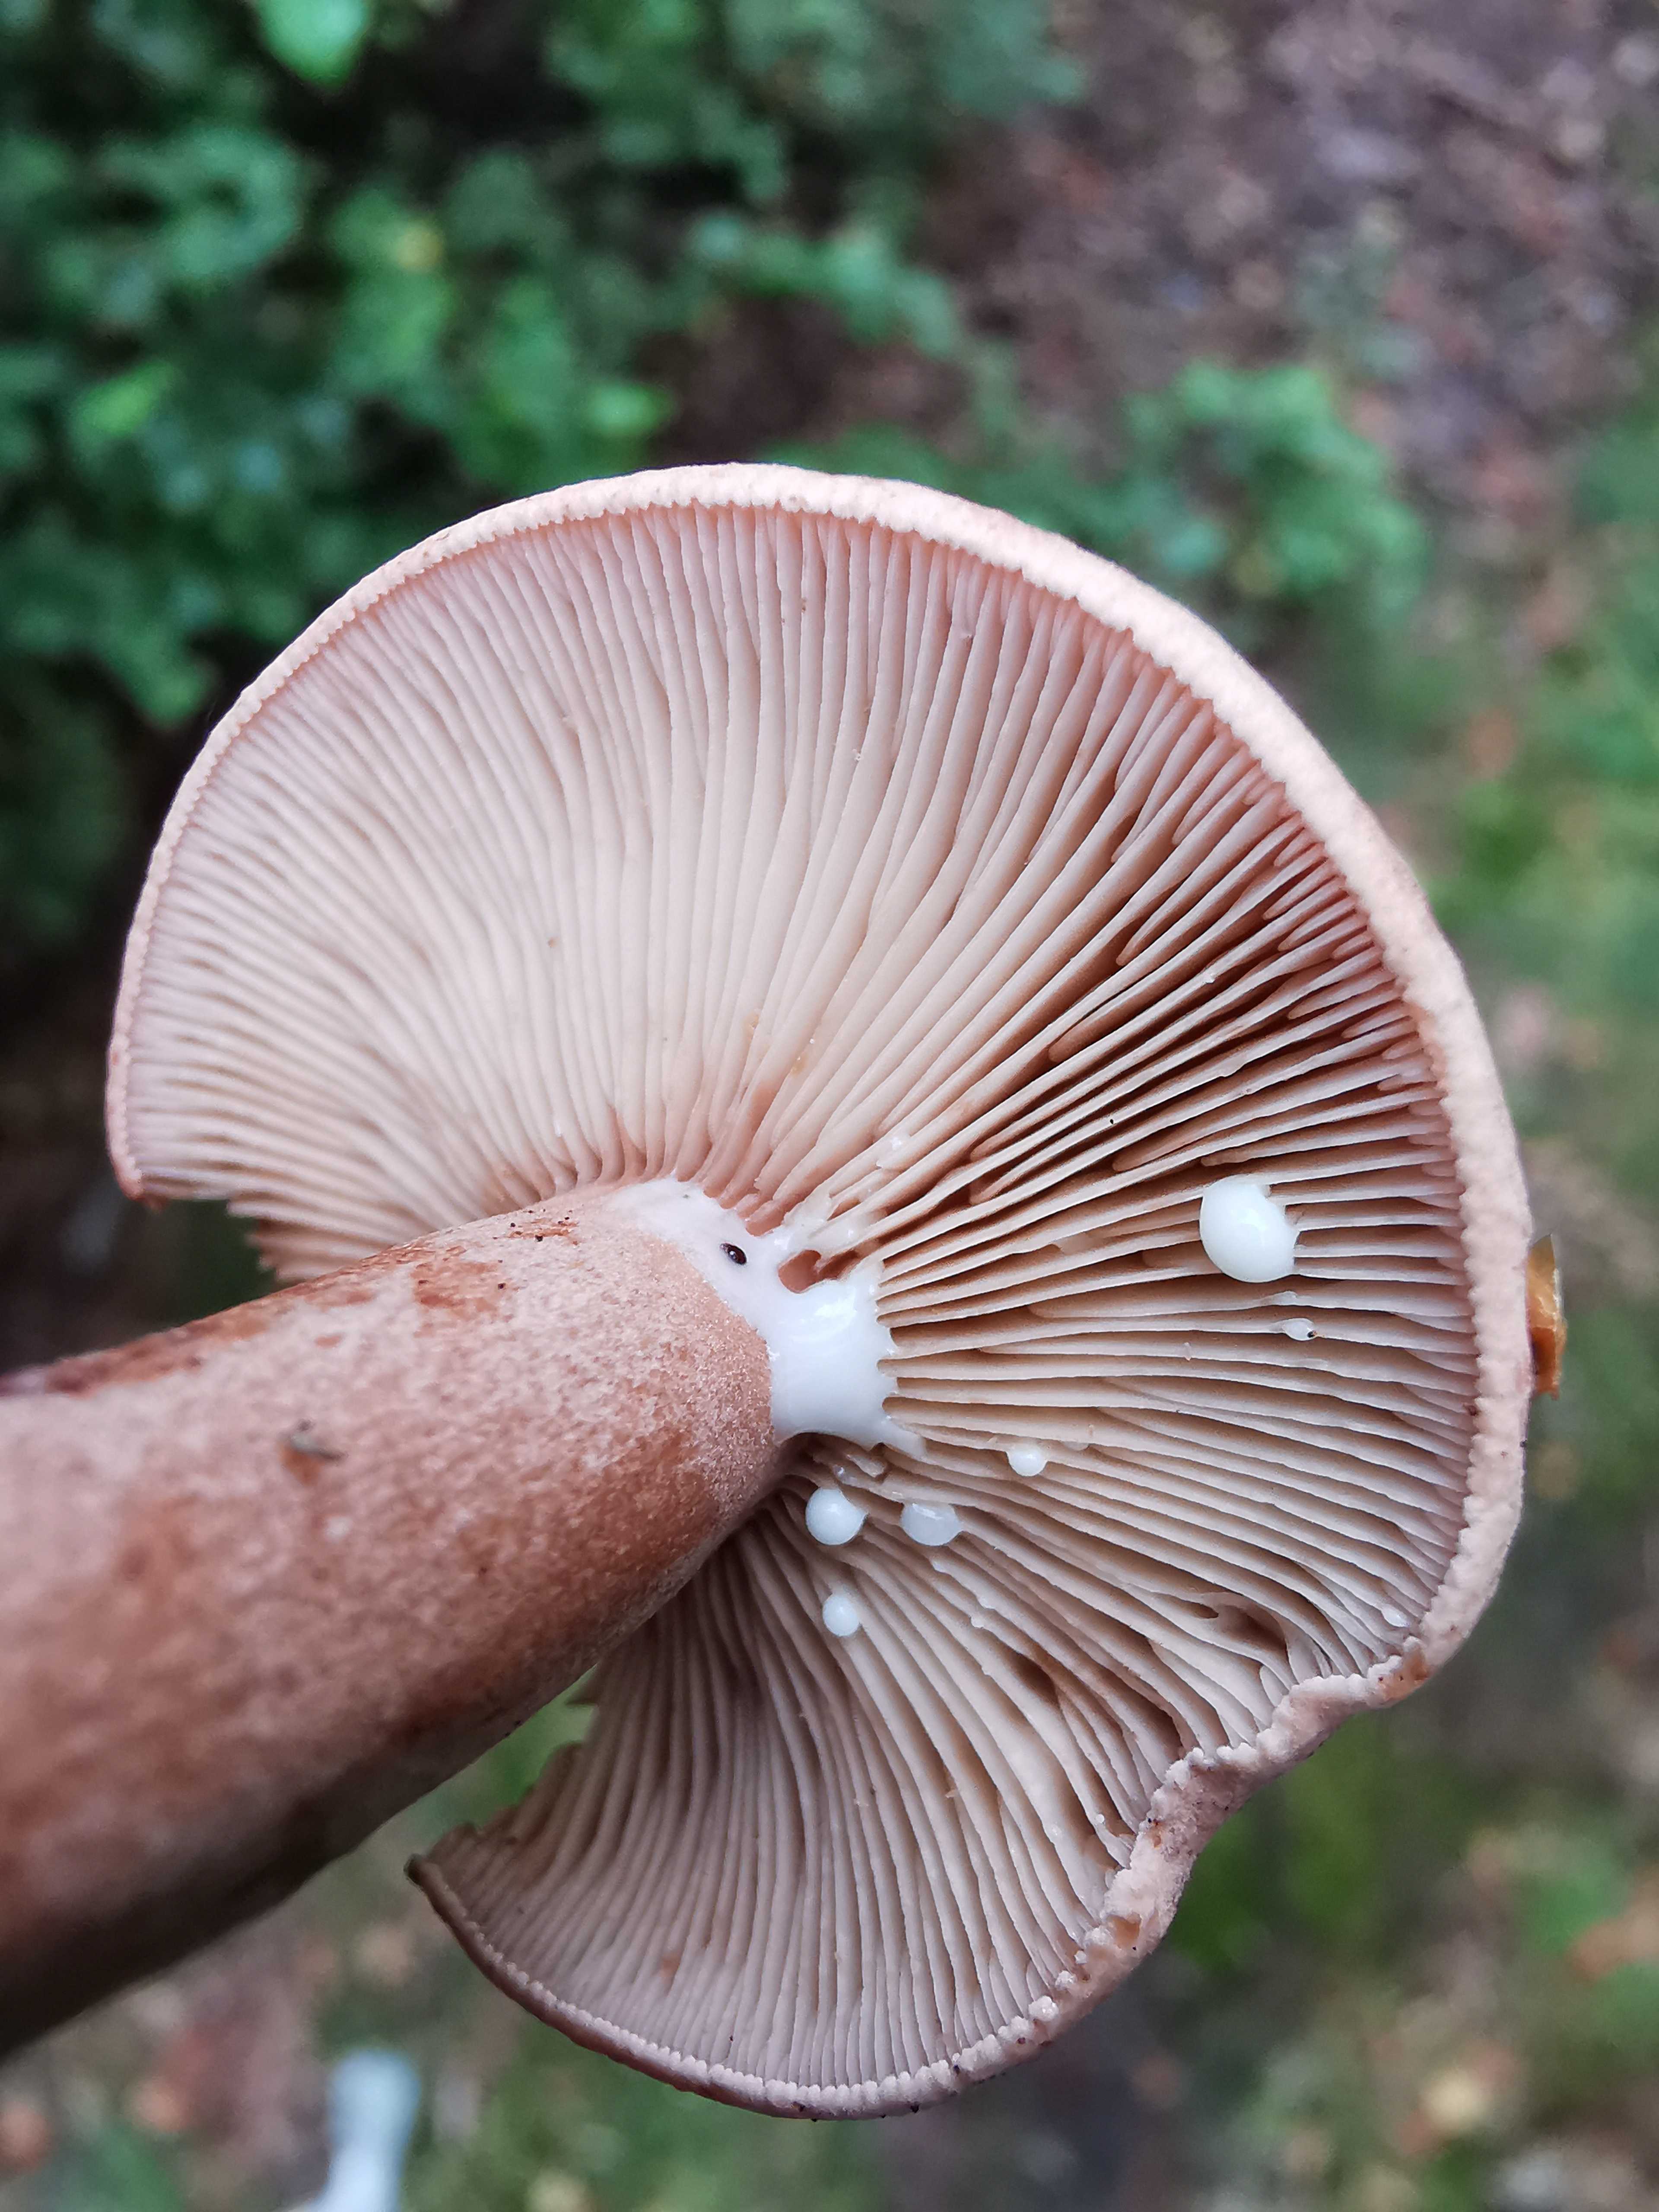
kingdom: Fungi
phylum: Basidiomycota
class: Agaricomycetes
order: Russulales
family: Russulaceae
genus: Lactarius
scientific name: Lactarius quietus
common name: ege-mælkehat
